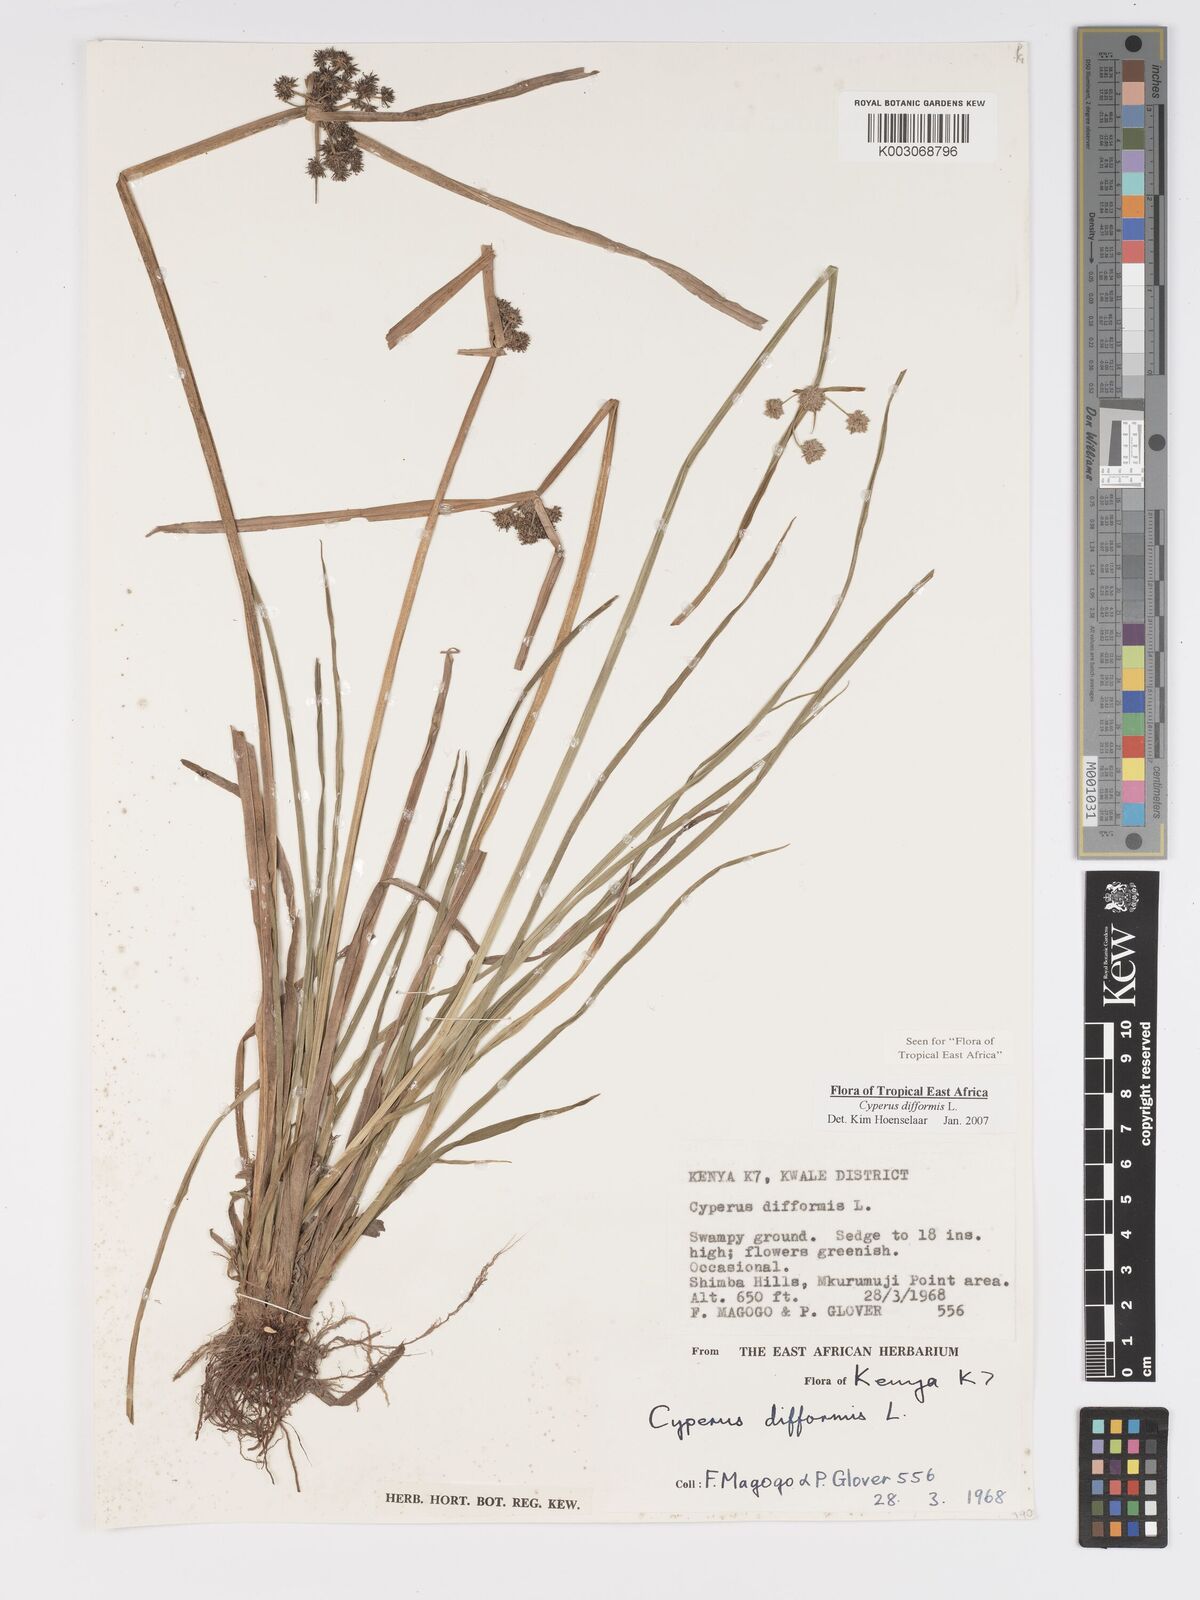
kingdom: Plantae
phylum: Tracheophyta
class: Liliopsida
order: Poales
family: Cyperaceae
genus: Cyperus
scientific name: Cyperus difformis
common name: Variable flatsedge
